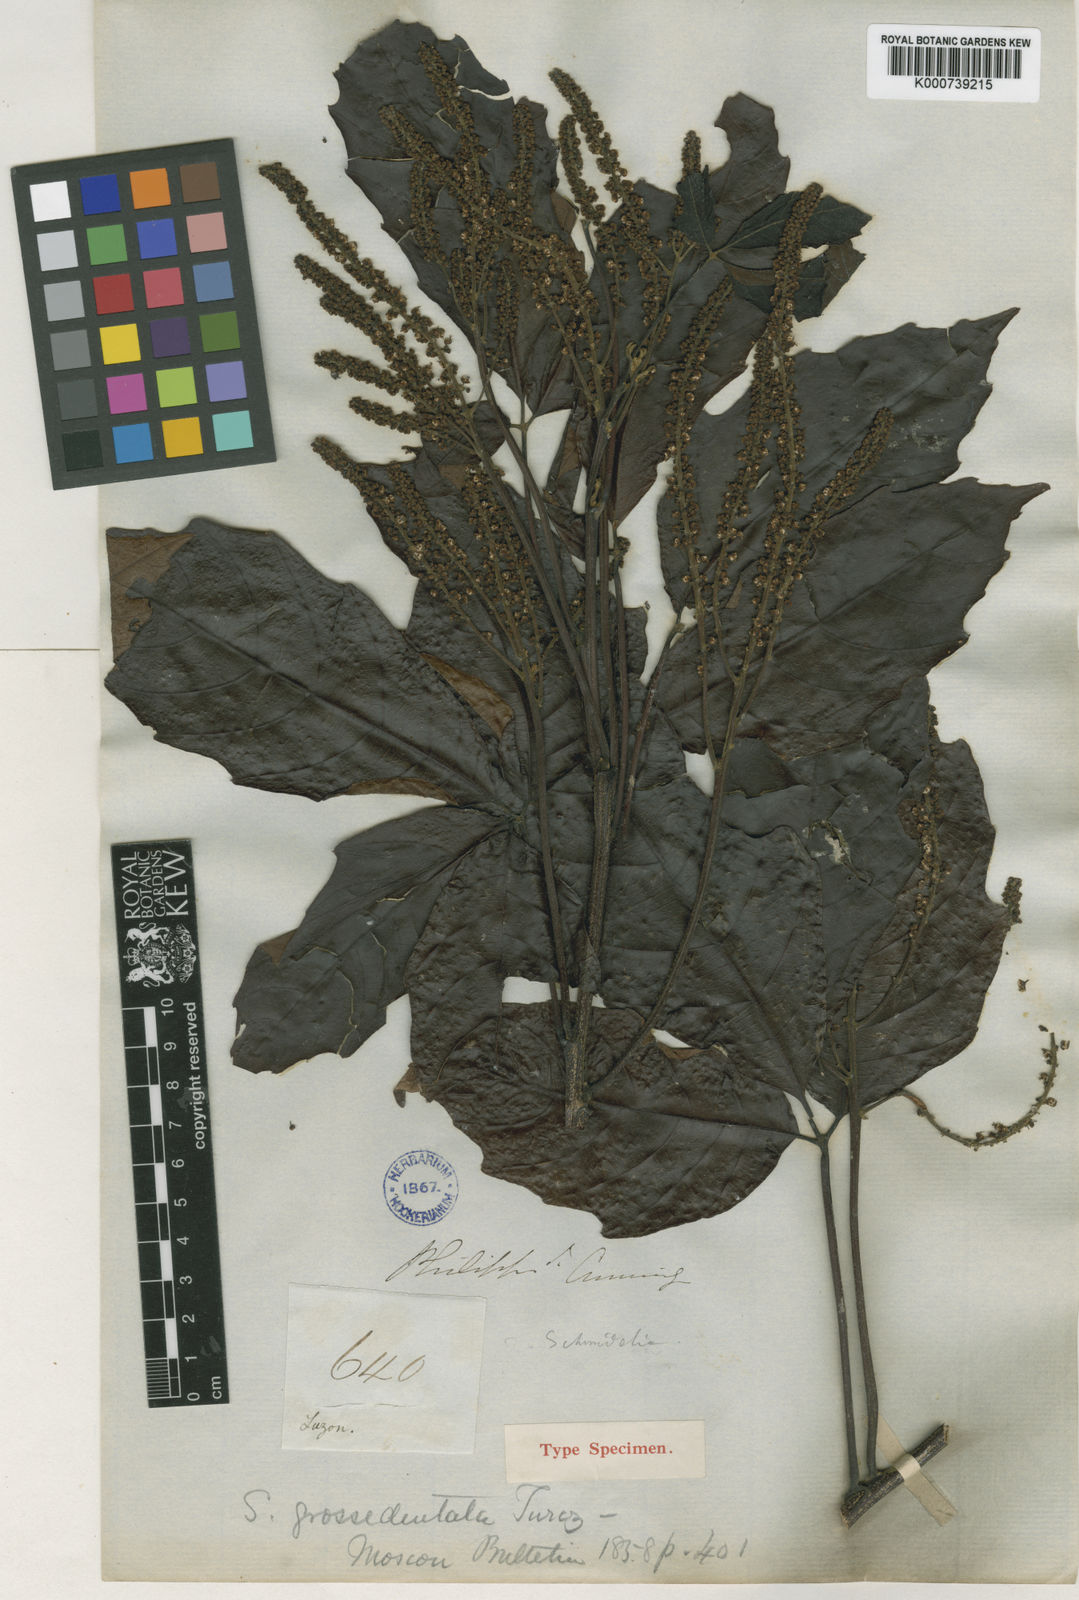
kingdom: Plantae
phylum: Tracheophyta
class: Magnoliopsida
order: Sapindales
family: Sapindaceae
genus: Allophylus
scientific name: Allophylus
